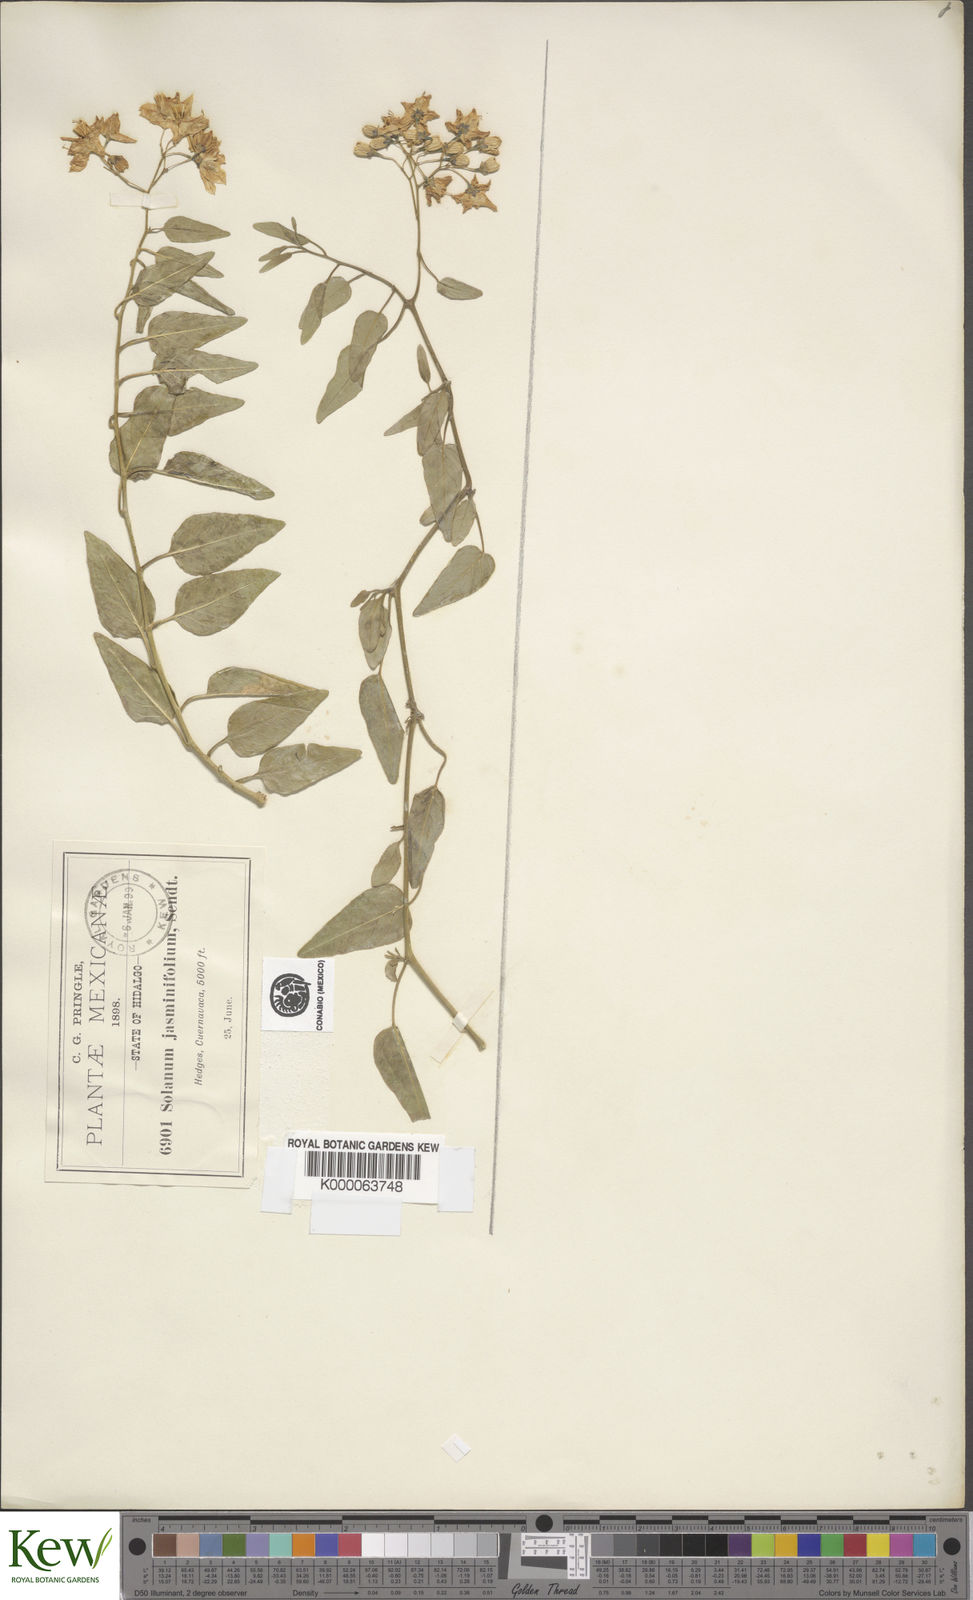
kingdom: Plantae
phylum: Tracheophyta
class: Magnoliopsida
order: Solanales
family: Solanaceae
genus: Solanum
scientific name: Solanum viscosissimum
